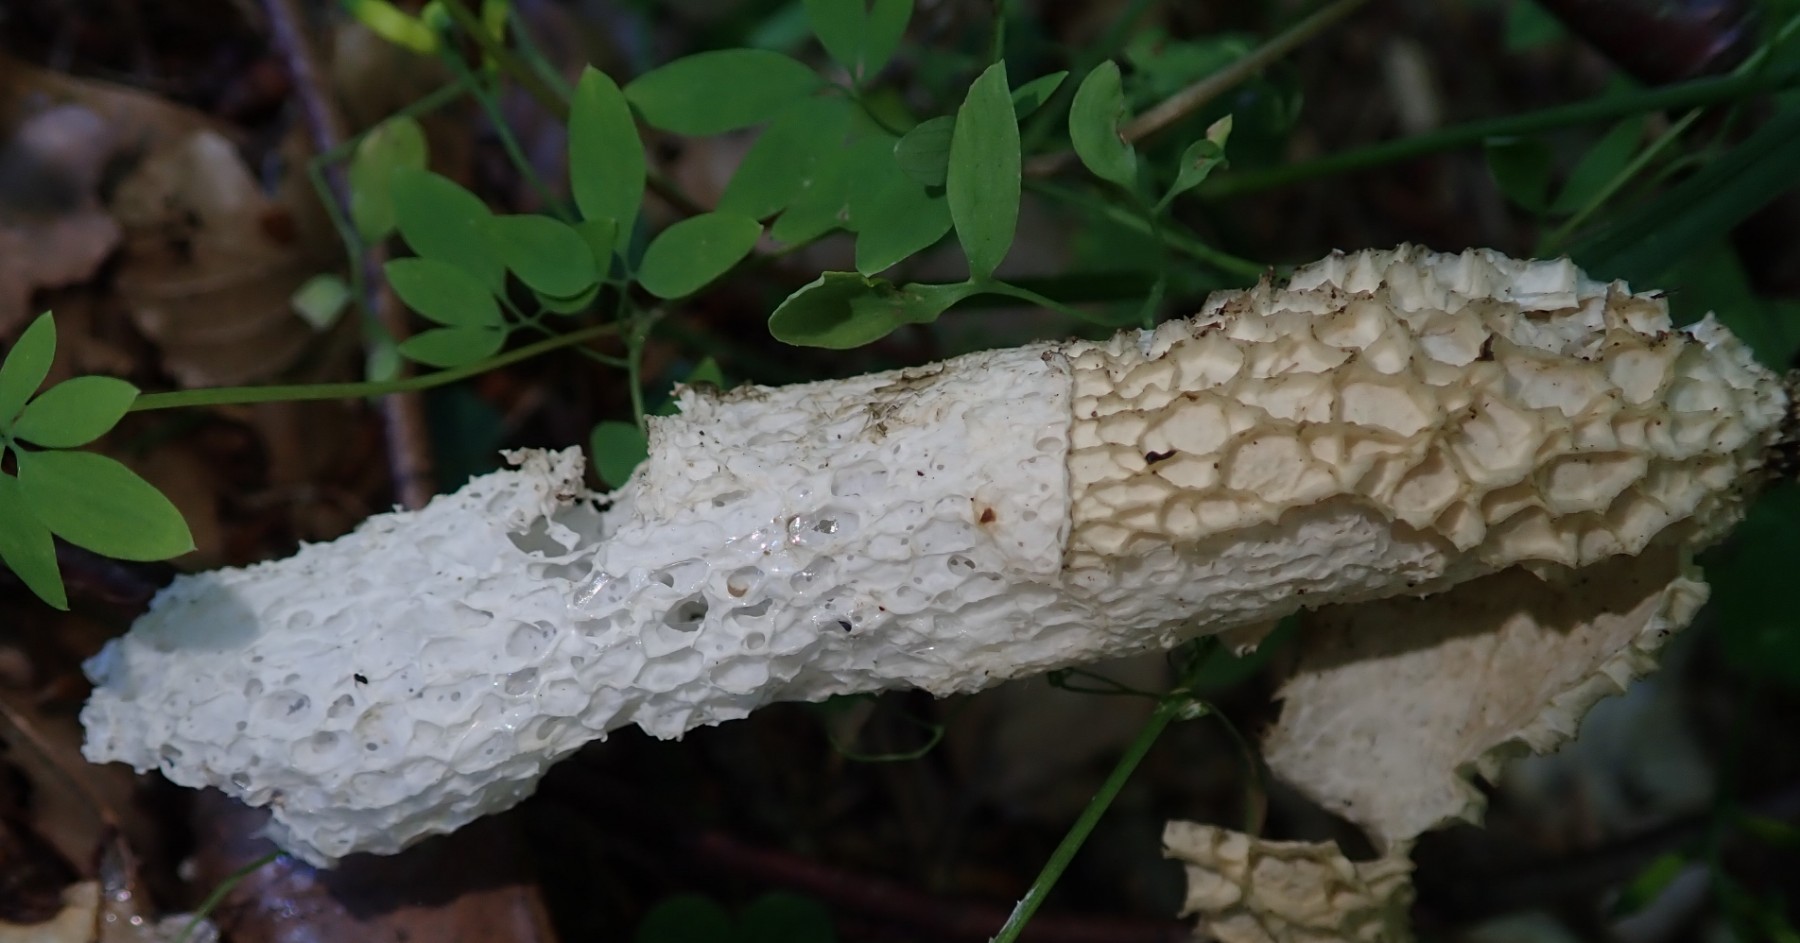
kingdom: Fungi
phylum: Basidiomycota
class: Agaricomycetes
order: Phallales
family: Phallaceae
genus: Phallus
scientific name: Phallus impudicus
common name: almindelig stinksvamp
